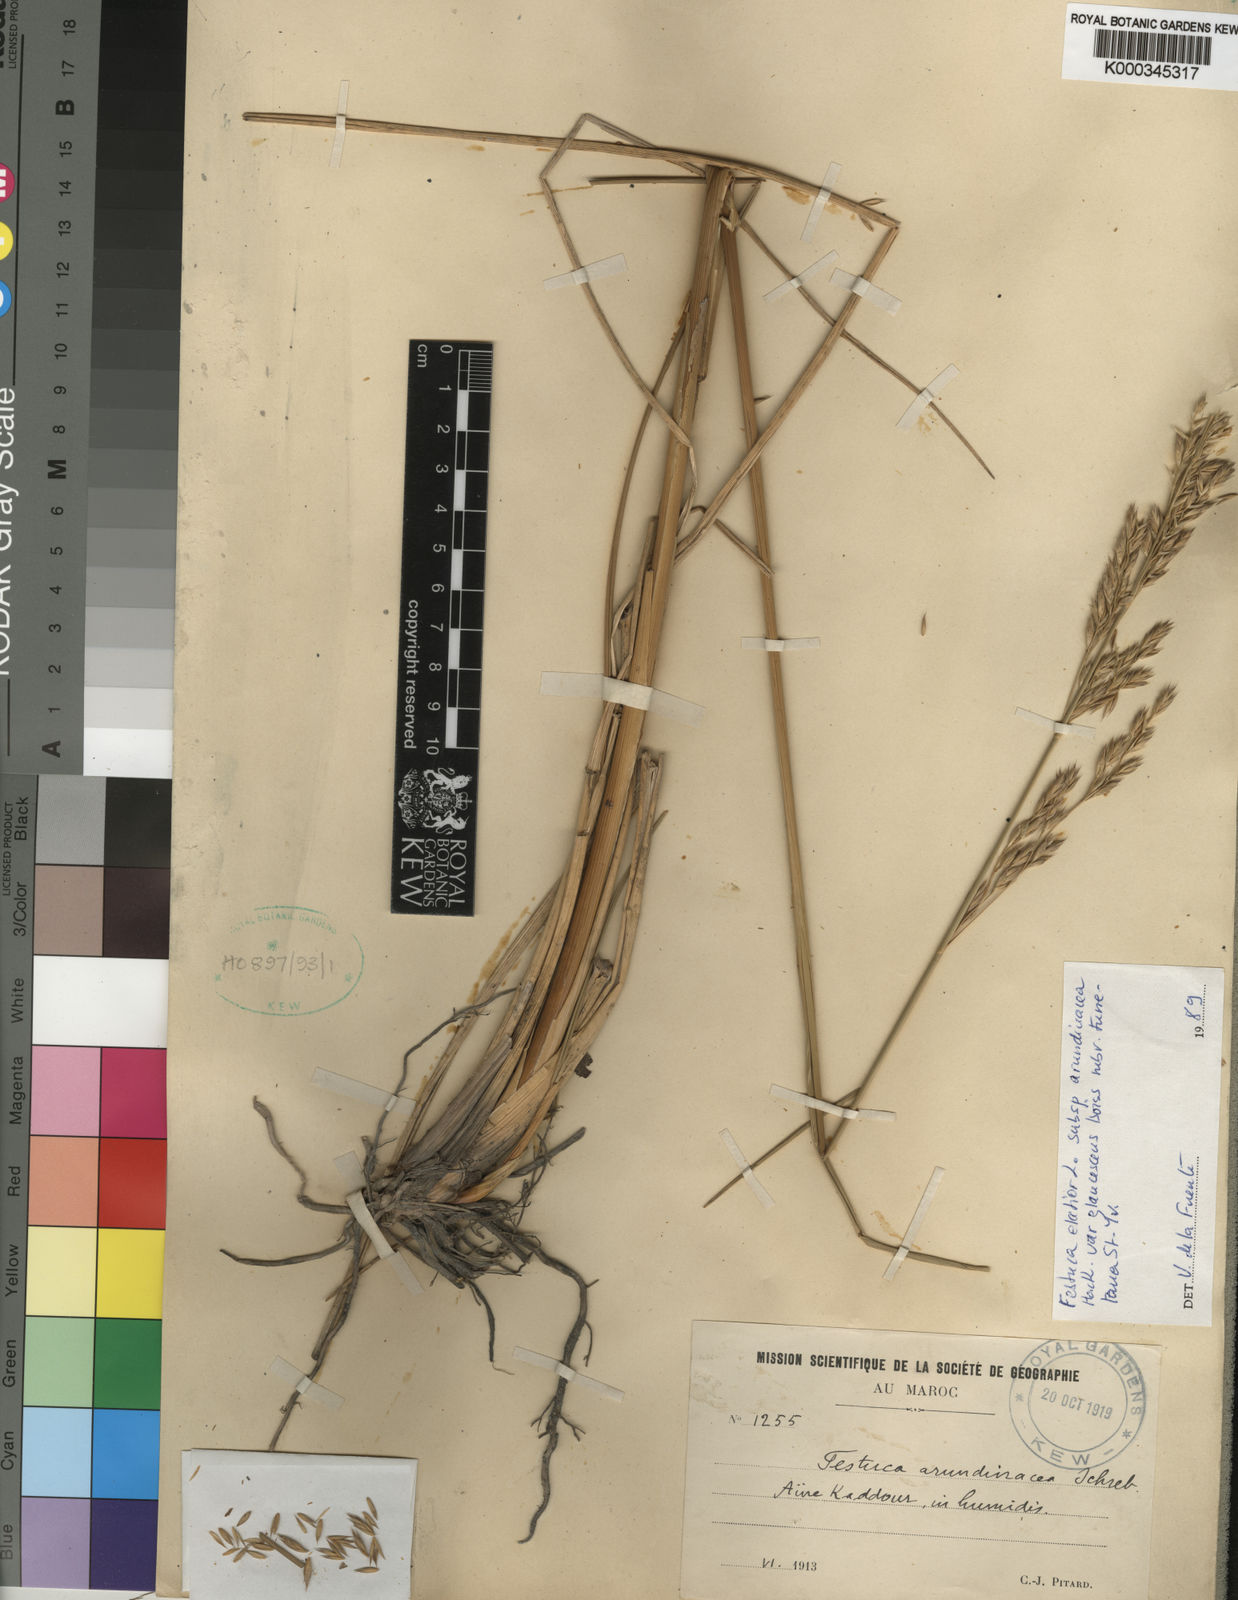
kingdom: Plantae
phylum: Tracheophyta
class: Liliopsida
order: Poales
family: Poaceae
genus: Lolium
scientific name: Lolium arundinaceum
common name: Reed fescue
